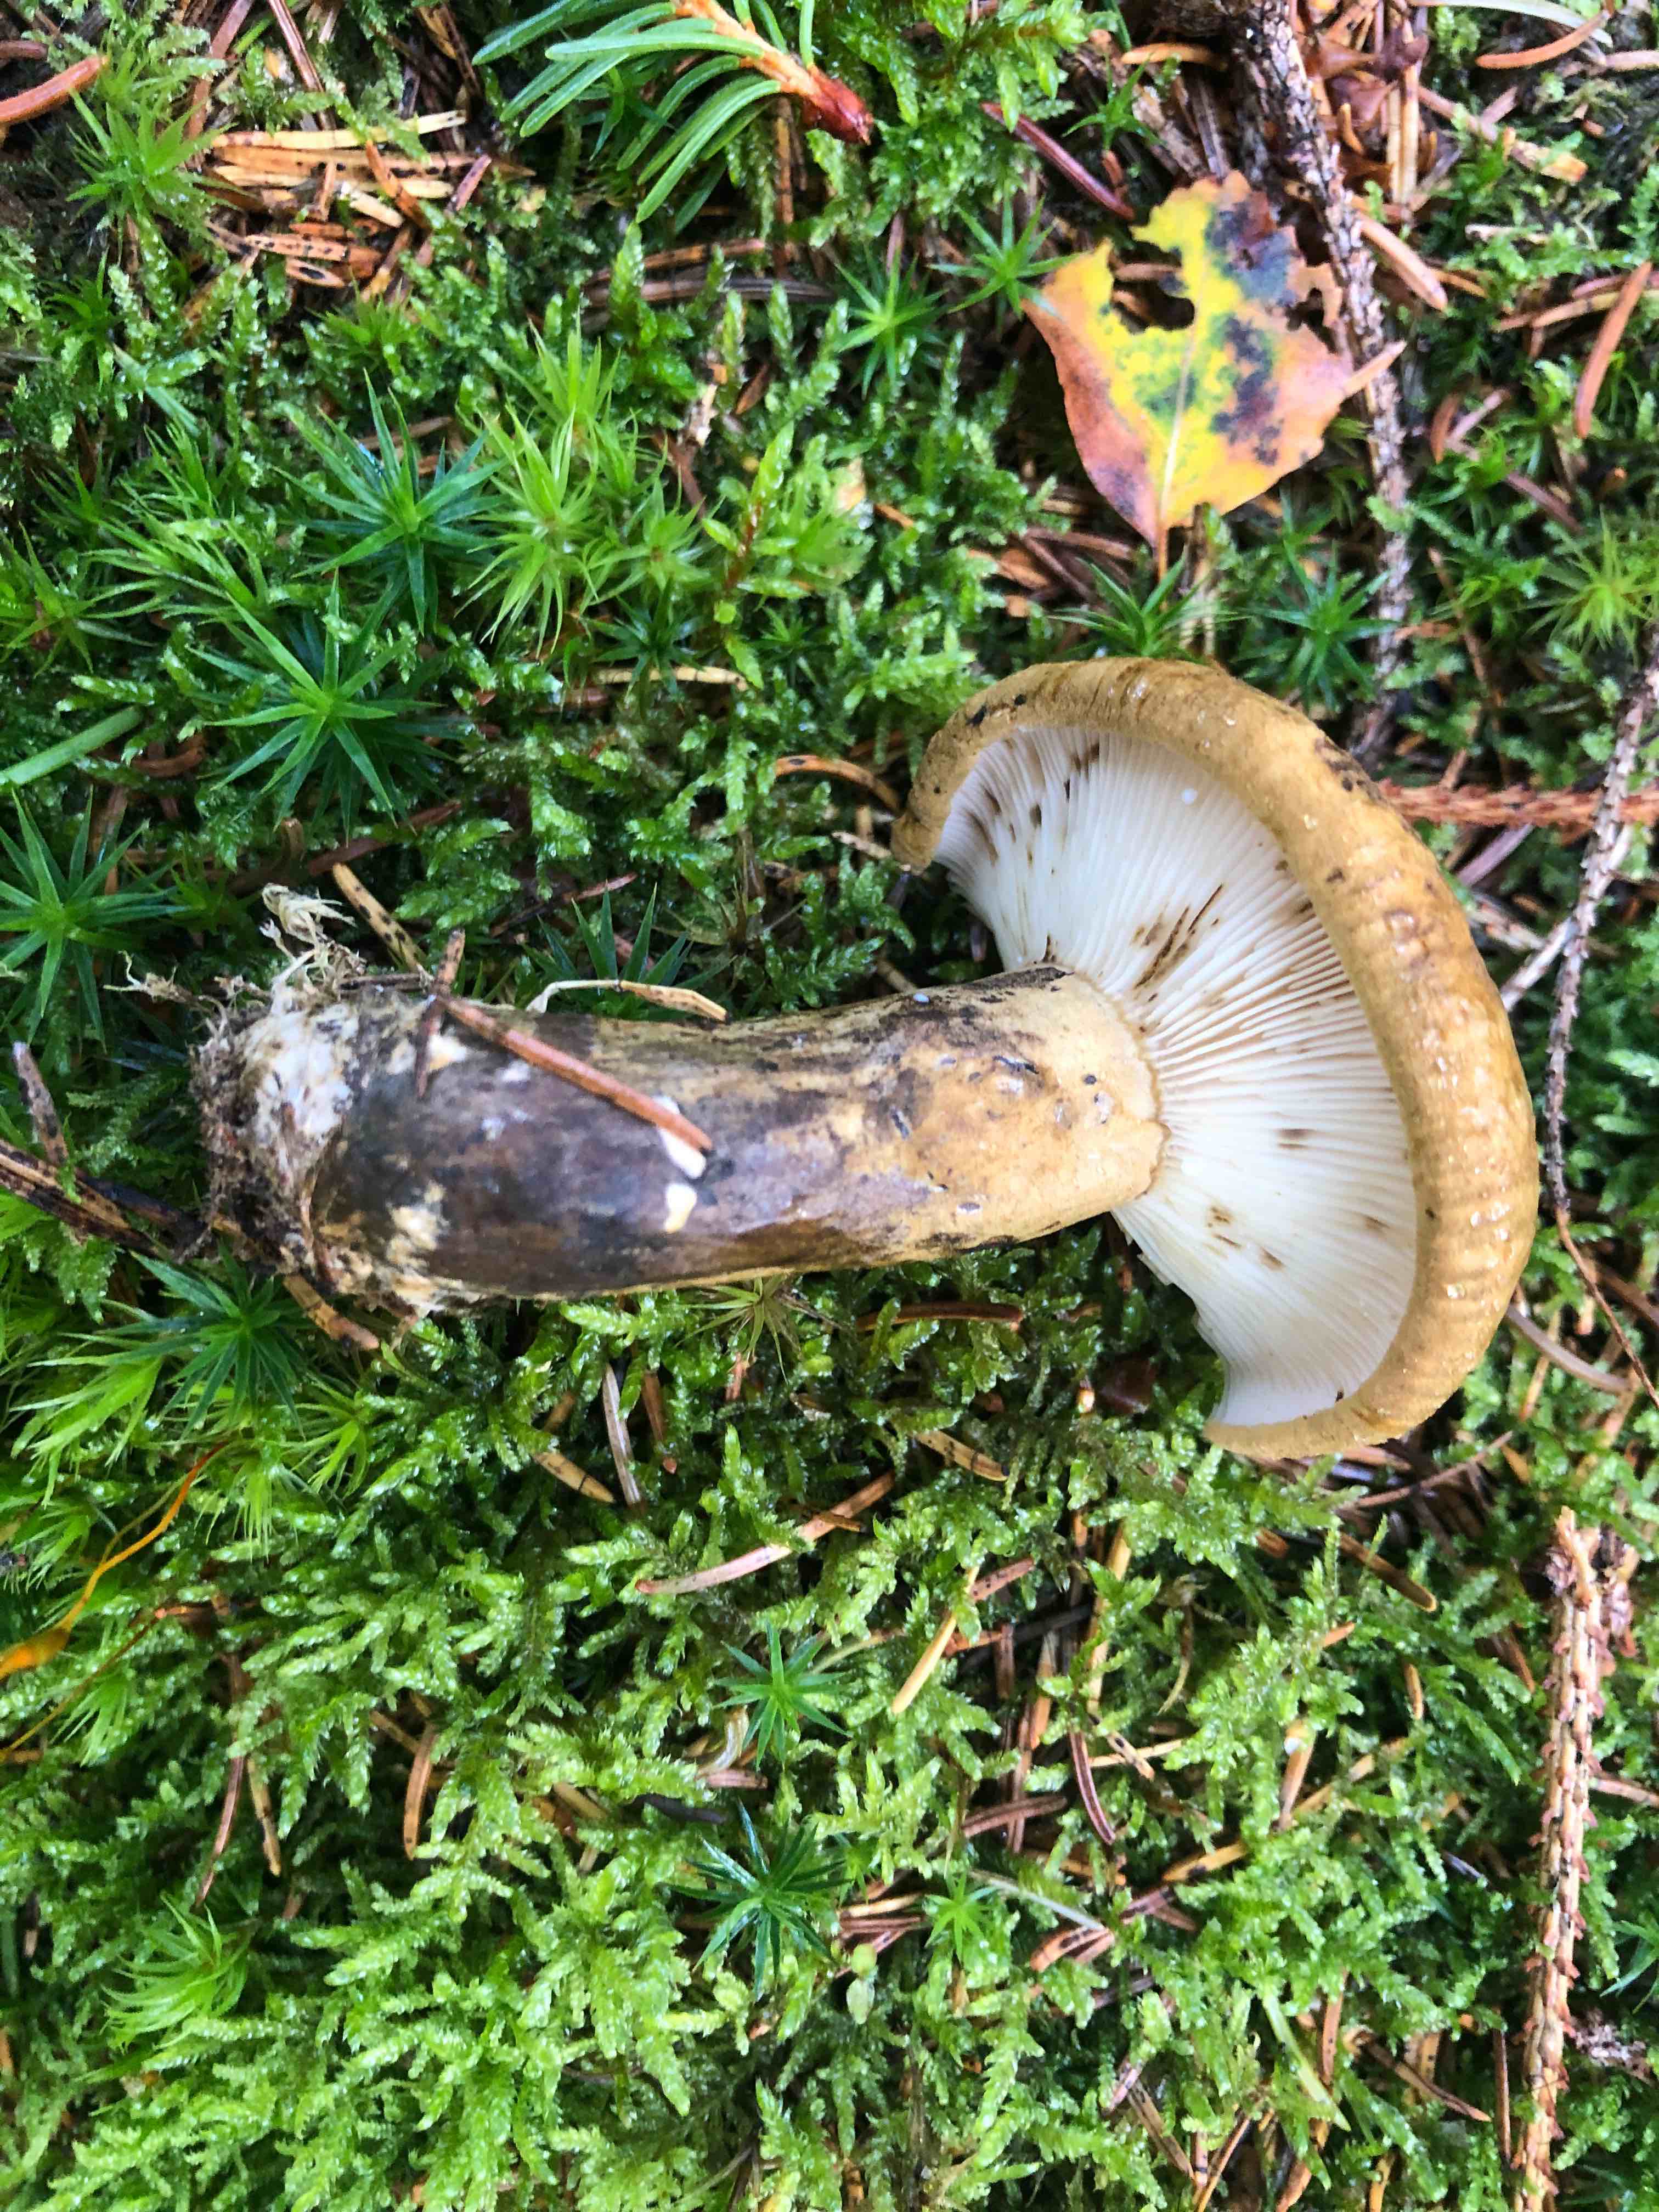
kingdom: Fungi
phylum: Basidiomycota
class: Agaricomycetes
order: Russulales
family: Russulaceae
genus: Lactarius
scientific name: Lactarius necator
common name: manddraber-mælkehat
